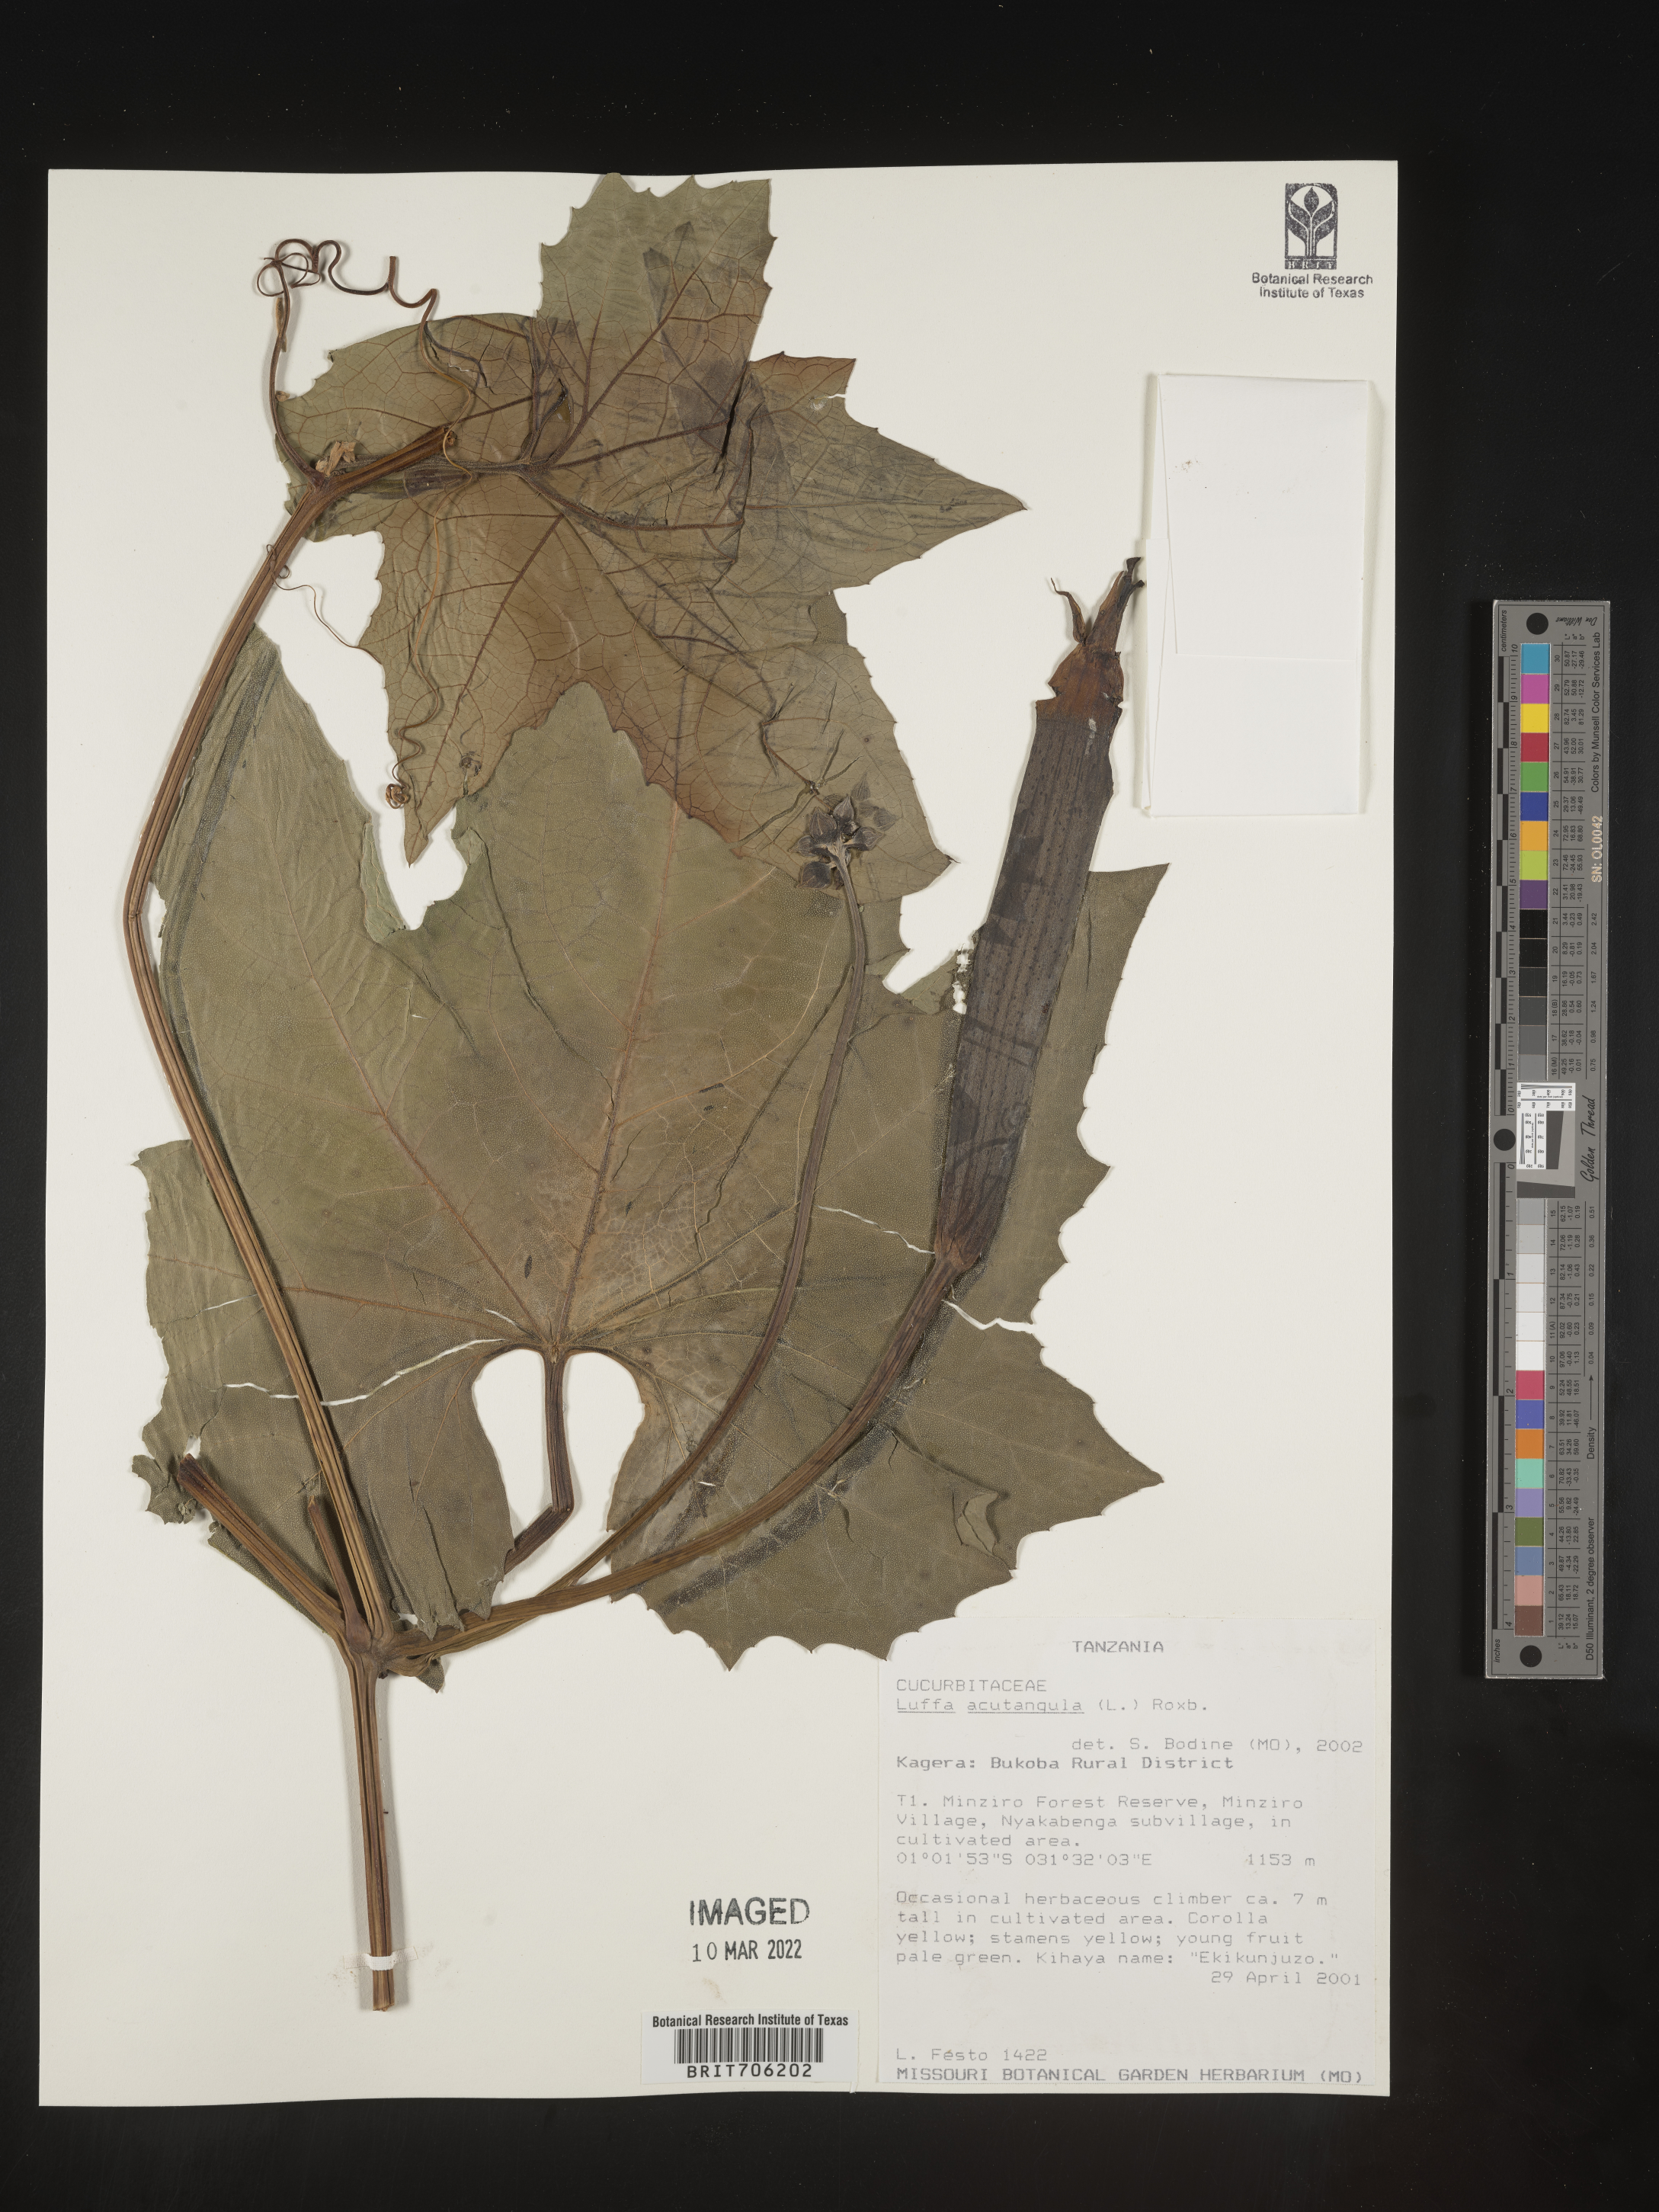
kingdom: Plantae
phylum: Tracheophyta
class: Magnoliopsida
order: Cucurbitales
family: Cucurbitaceae
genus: Luffa
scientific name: Luffa
